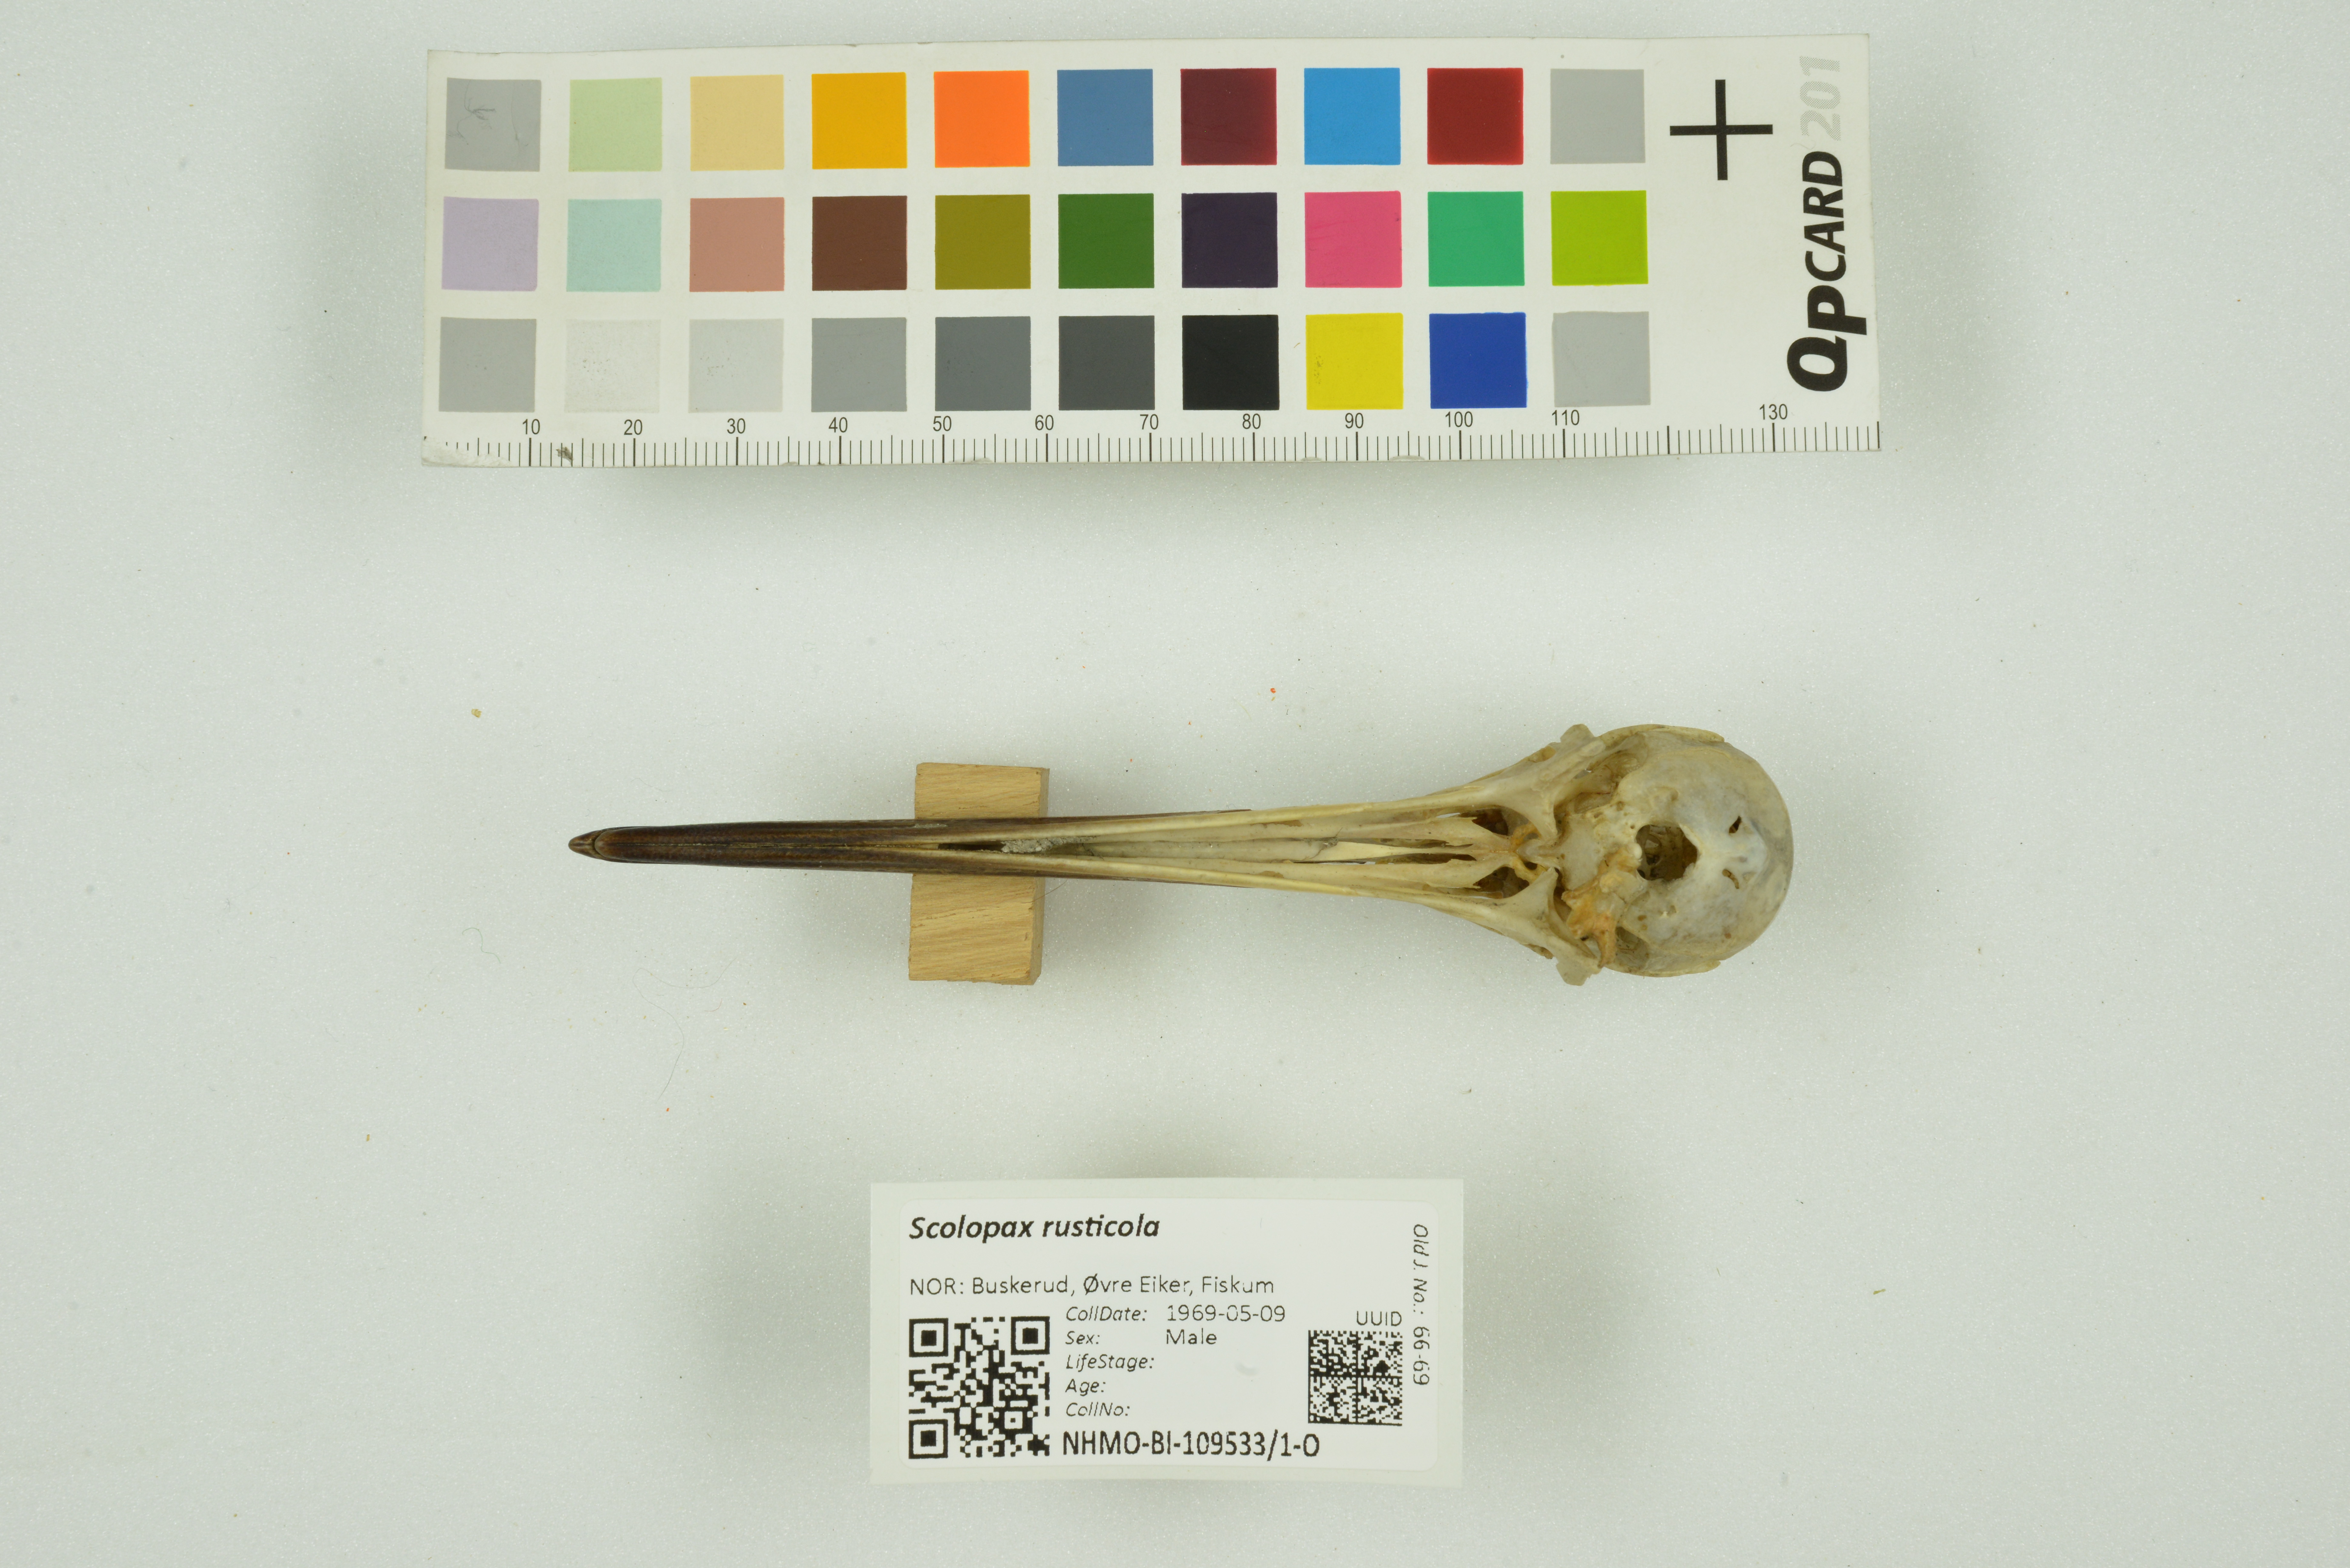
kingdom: Animalia
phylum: Chordata
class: Aves
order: Charadriiformes
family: Scolopacidae
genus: Scolopax
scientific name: Scolopax rusticola
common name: Eurasian woodcock
